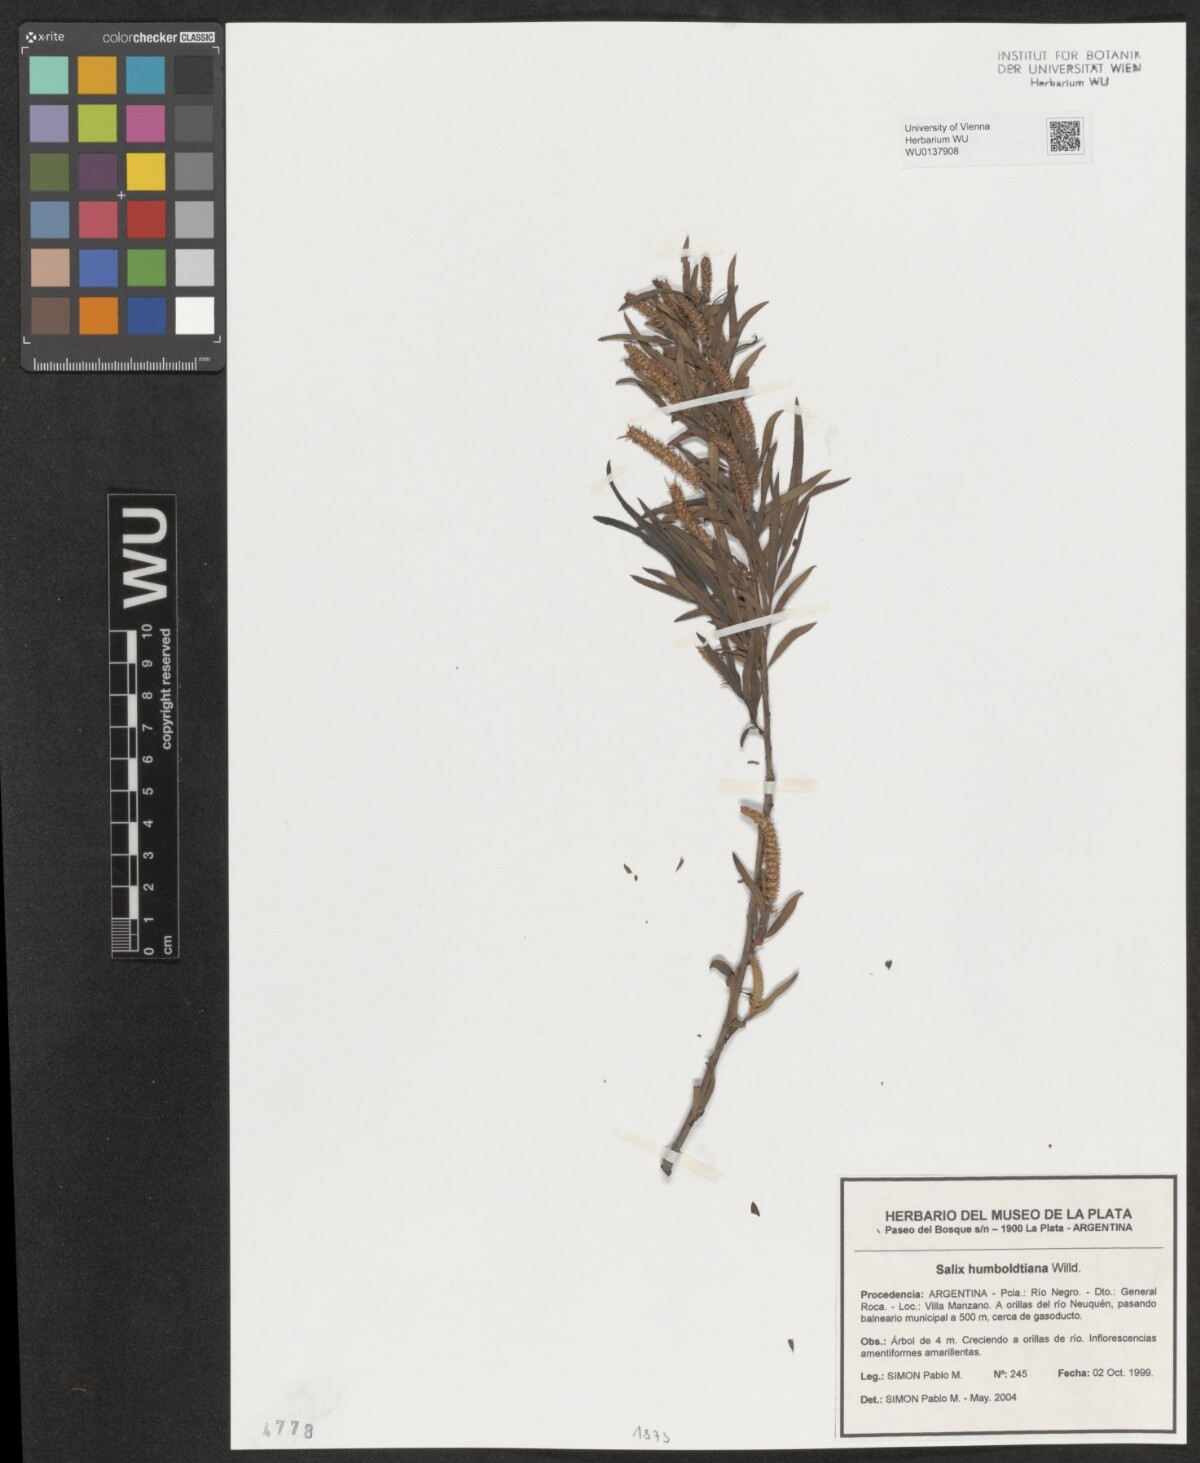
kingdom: Plantae
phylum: Tracheophyta
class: Magnoliopsida
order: Malpighiales
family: Salicaceae
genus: Salix
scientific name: Salix humboldtiana
